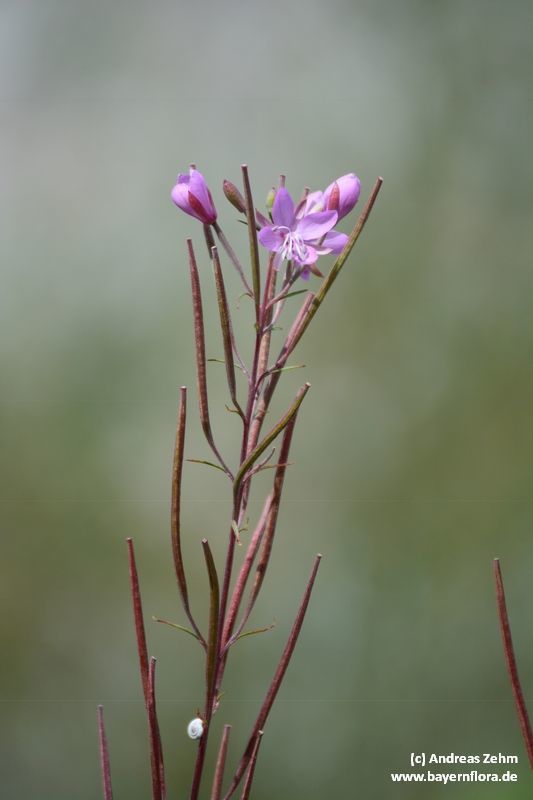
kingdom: Plantae
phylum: Tracheophyta
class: Magnoliopsida
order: Myrtales
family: Onagraceae
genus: Chamaenerion
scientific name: Chamaenerion dodonaei
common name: Rosemary-leaved willowherb
